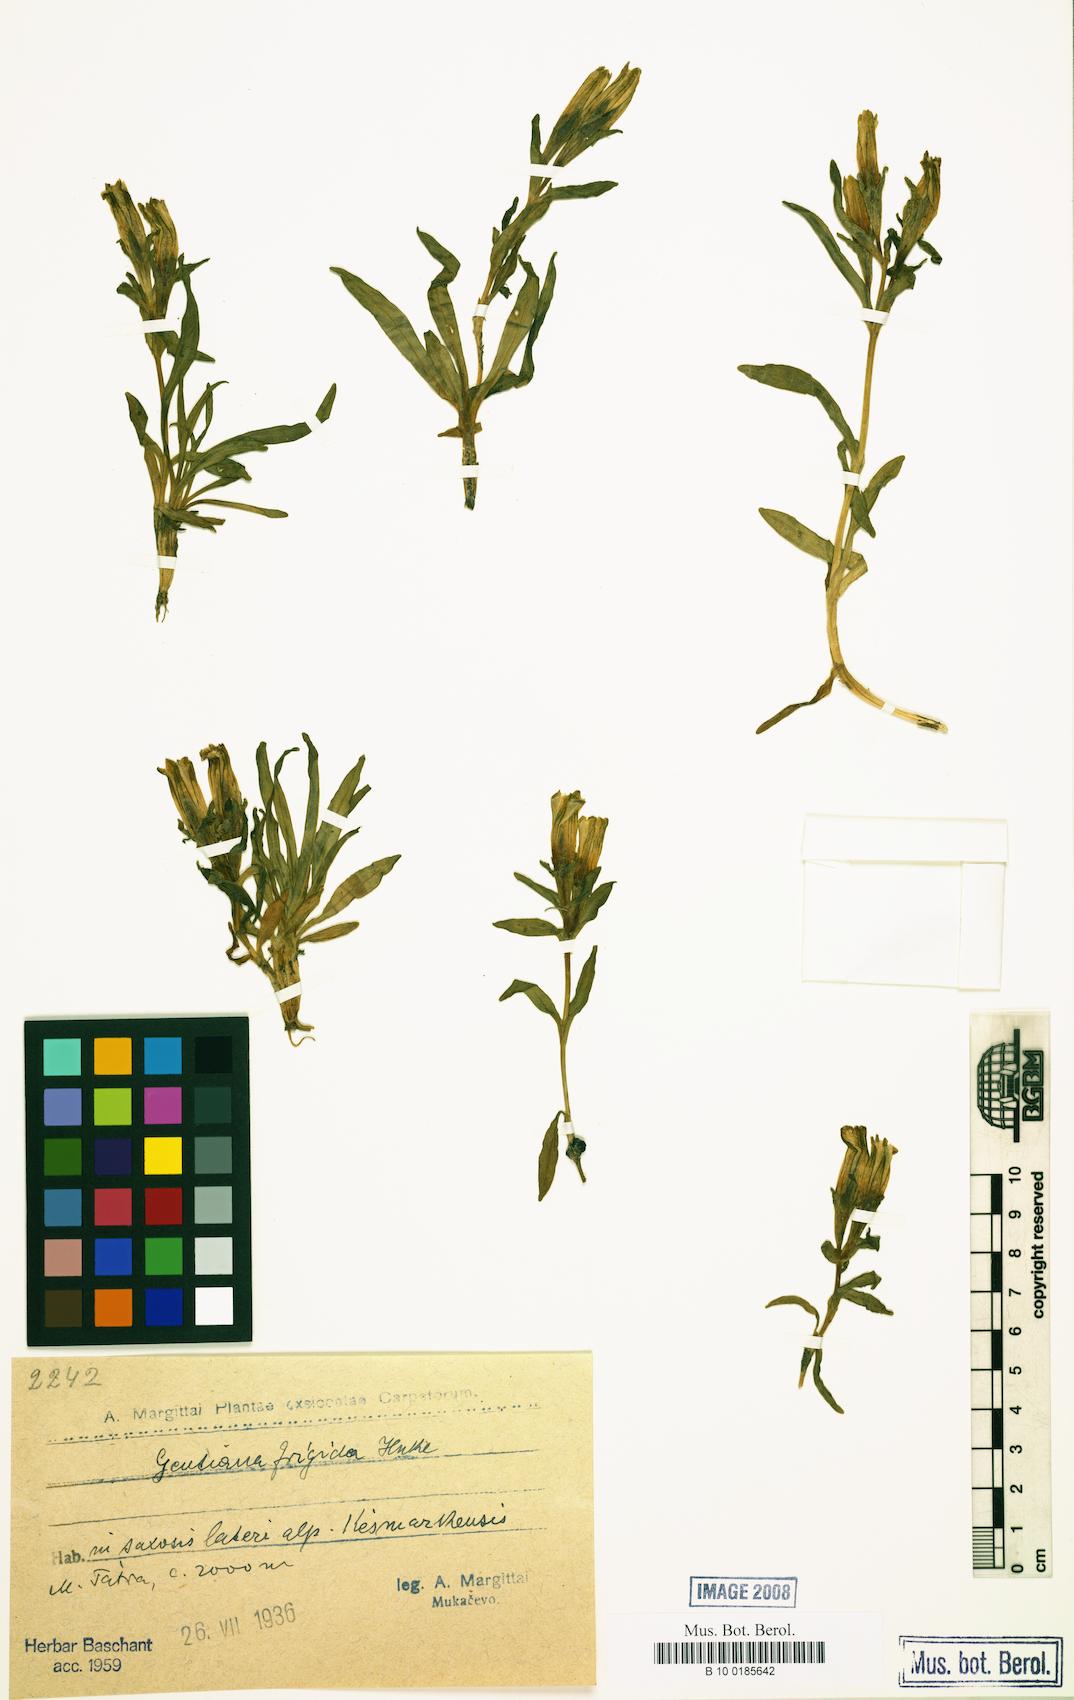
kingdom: Plantae
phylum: Tracheophyta
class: Magnoliopsida
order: Gentianales
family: Gentianaceae
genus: Gentiana
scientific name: Gentiana frigida
